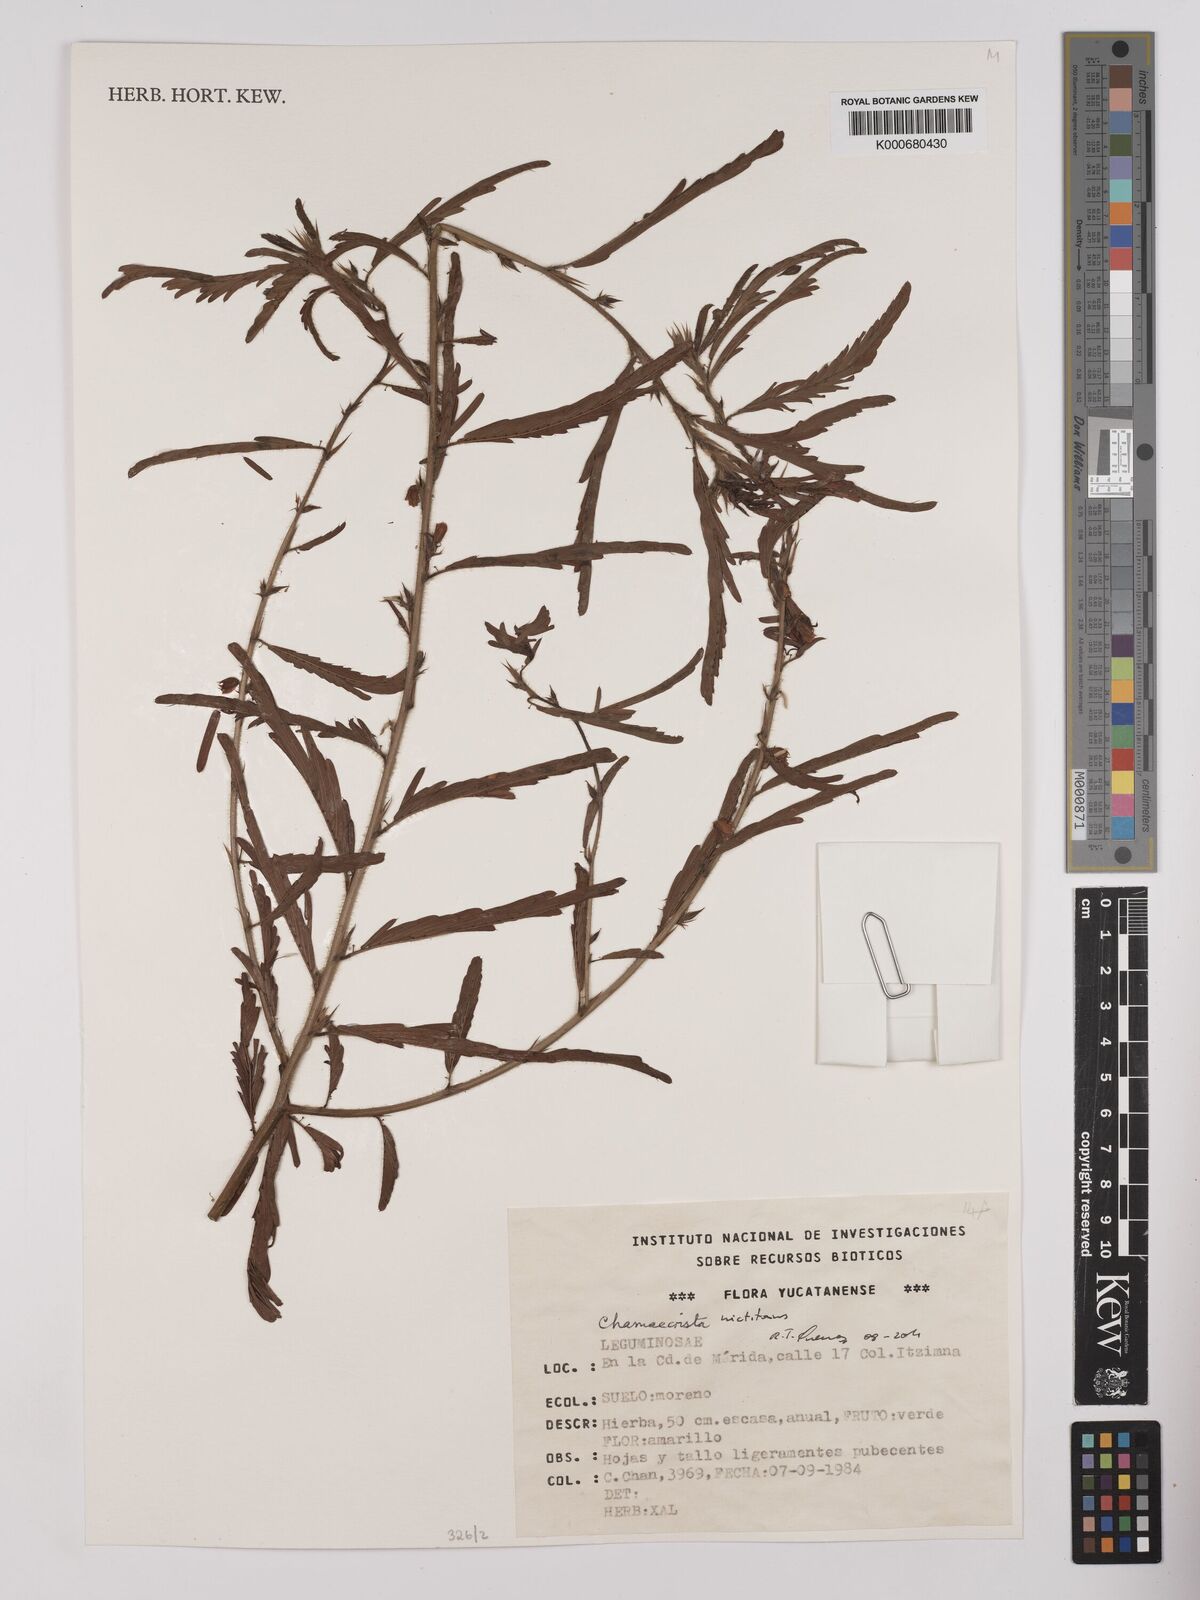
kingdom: Plantae
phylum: Tracheophyta
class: Magnoliopsida
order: Fabales
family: Fabaceae
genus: Chamaecrista
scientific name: Chamaecrista
